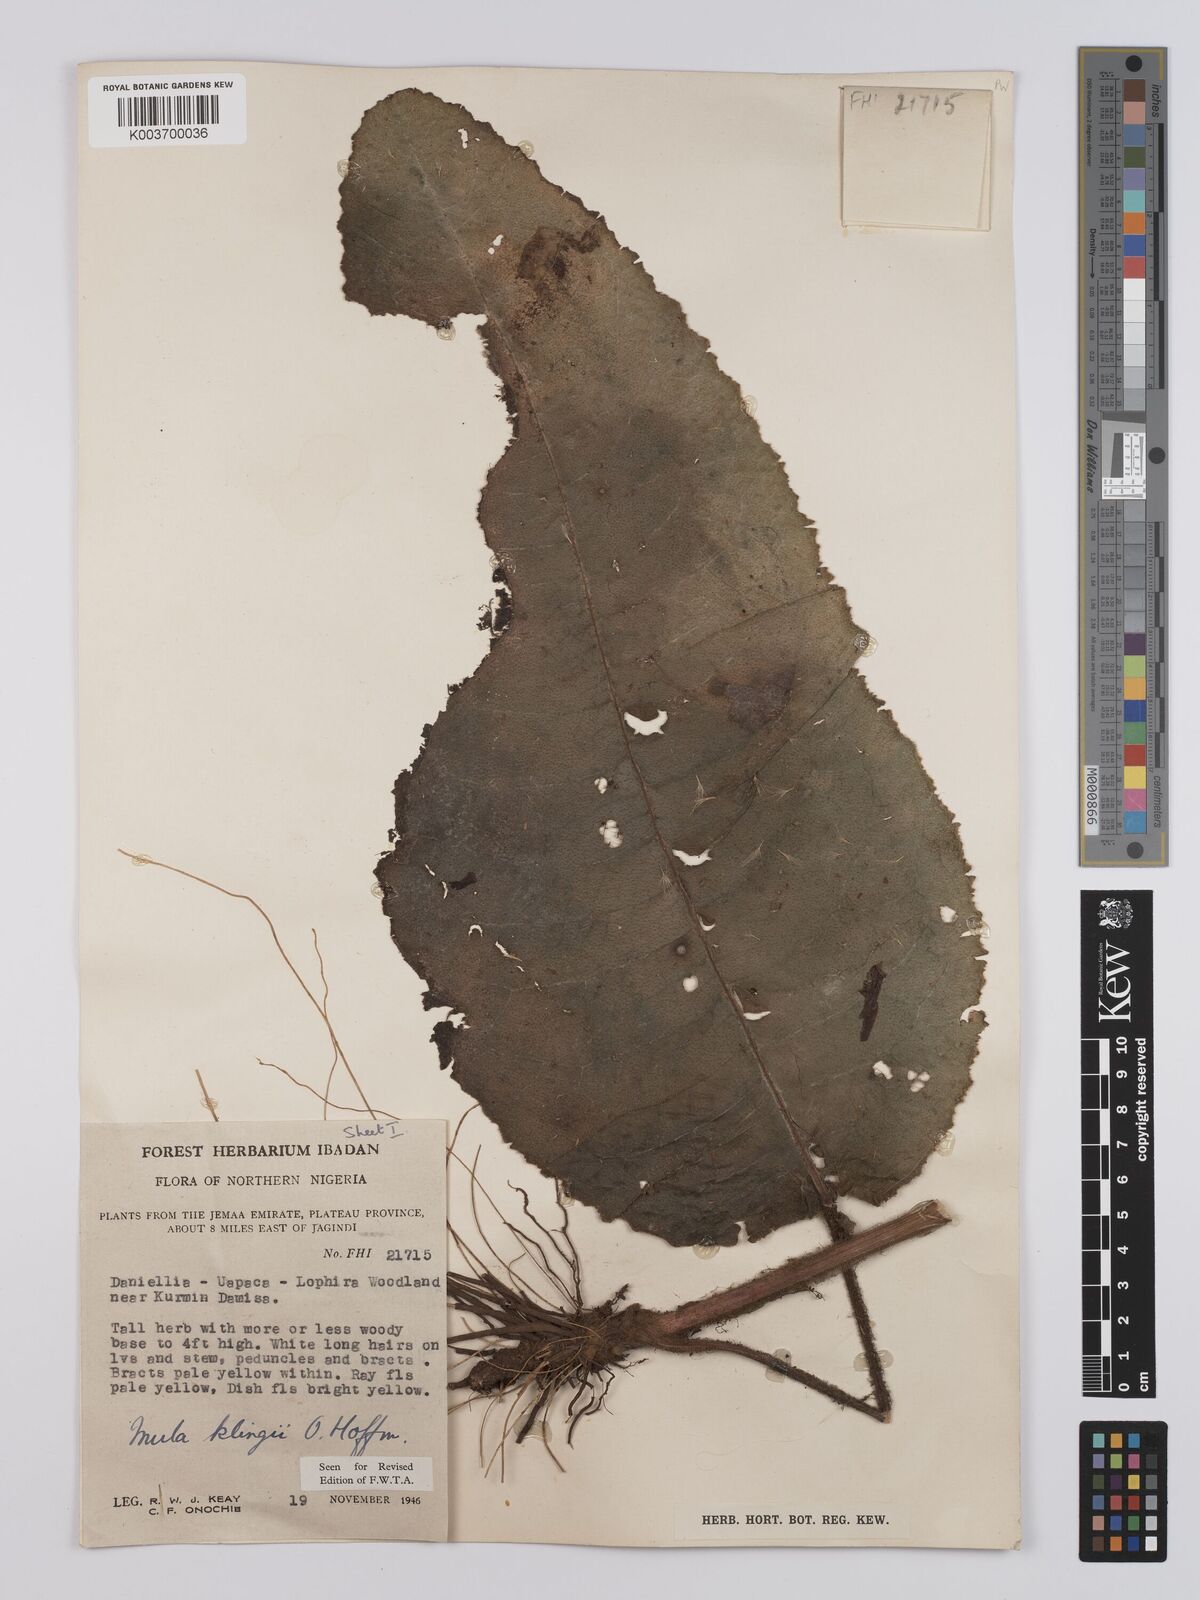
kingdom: Plantae
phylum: Tracheophyta
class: Magnoliopsida
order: Asterales
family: Asteraceae
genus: Inula
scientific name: Inula klingii
